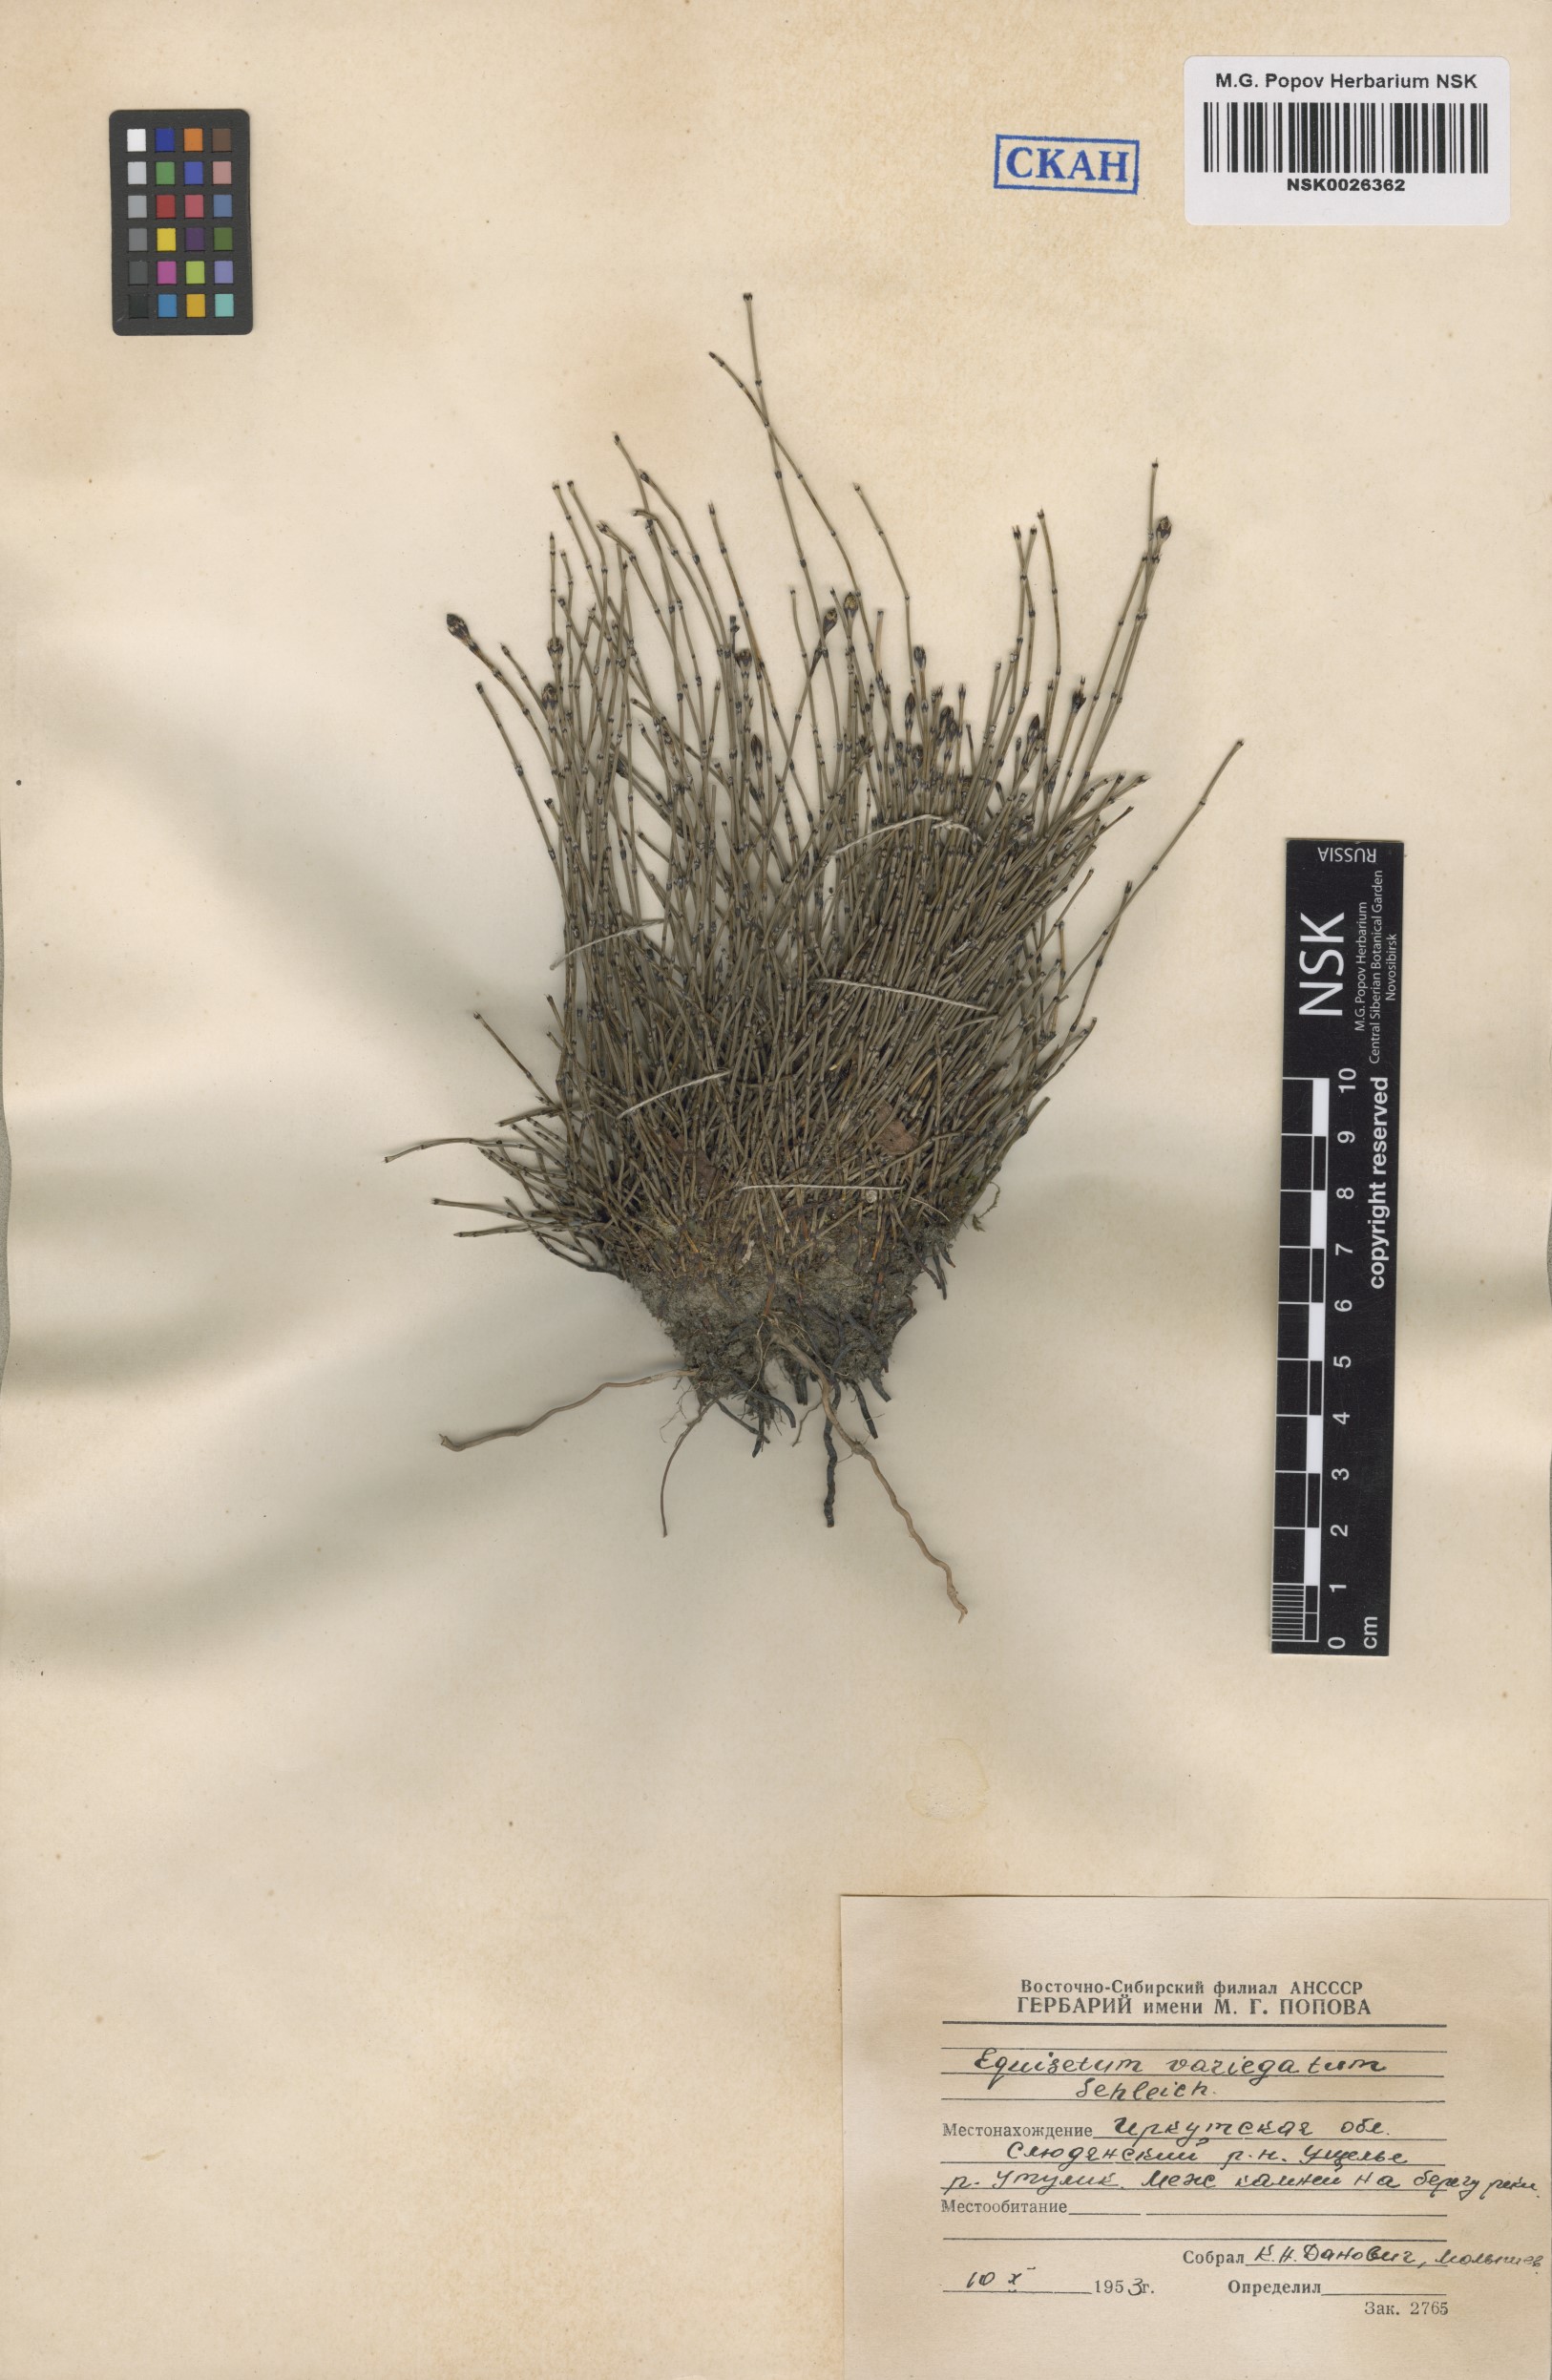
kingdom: Plantae
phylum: Tracheophyta
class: Polypodiopsida
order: Equisetales
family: Equisetaceae
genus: Equisetum
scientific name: Equisetum variegatum
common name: Variegated horsetail
